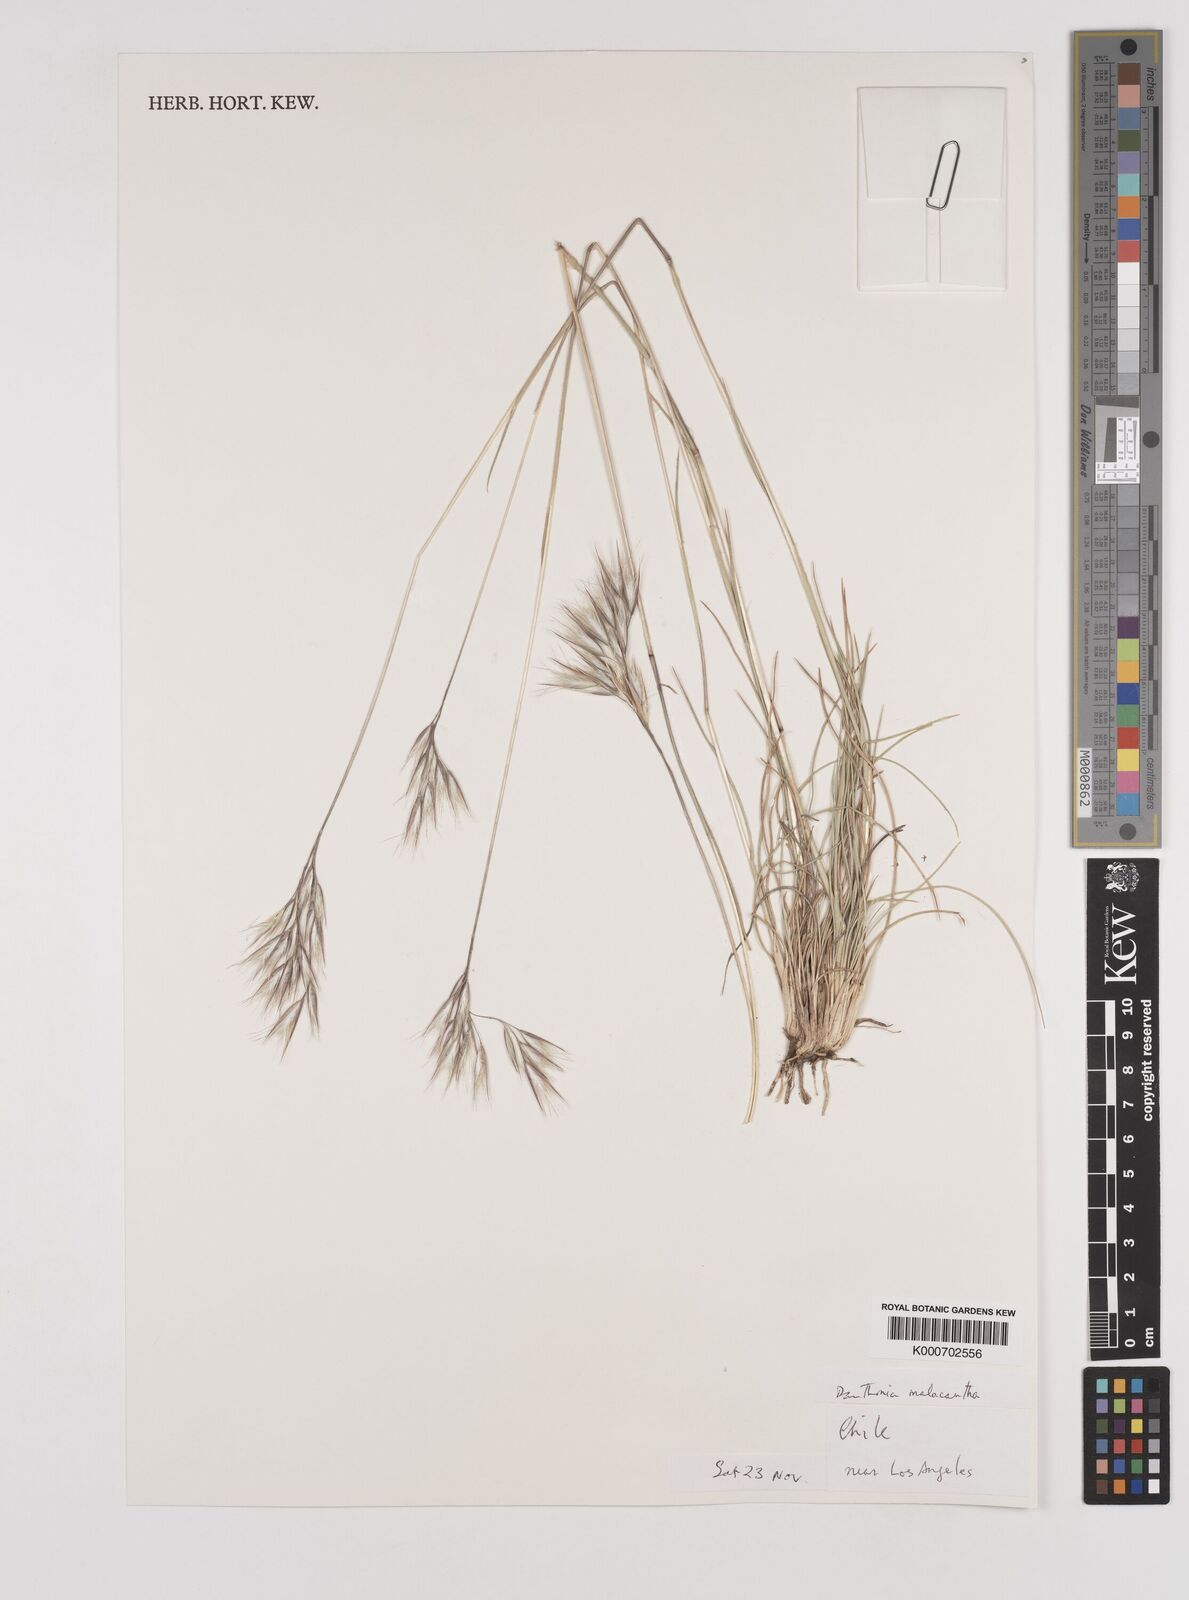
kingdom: Plantae
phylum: Tracheophyta
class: Liliopsida
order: Poales
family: Poaceae
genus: Danthonia
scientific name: Danthonia malacantha
